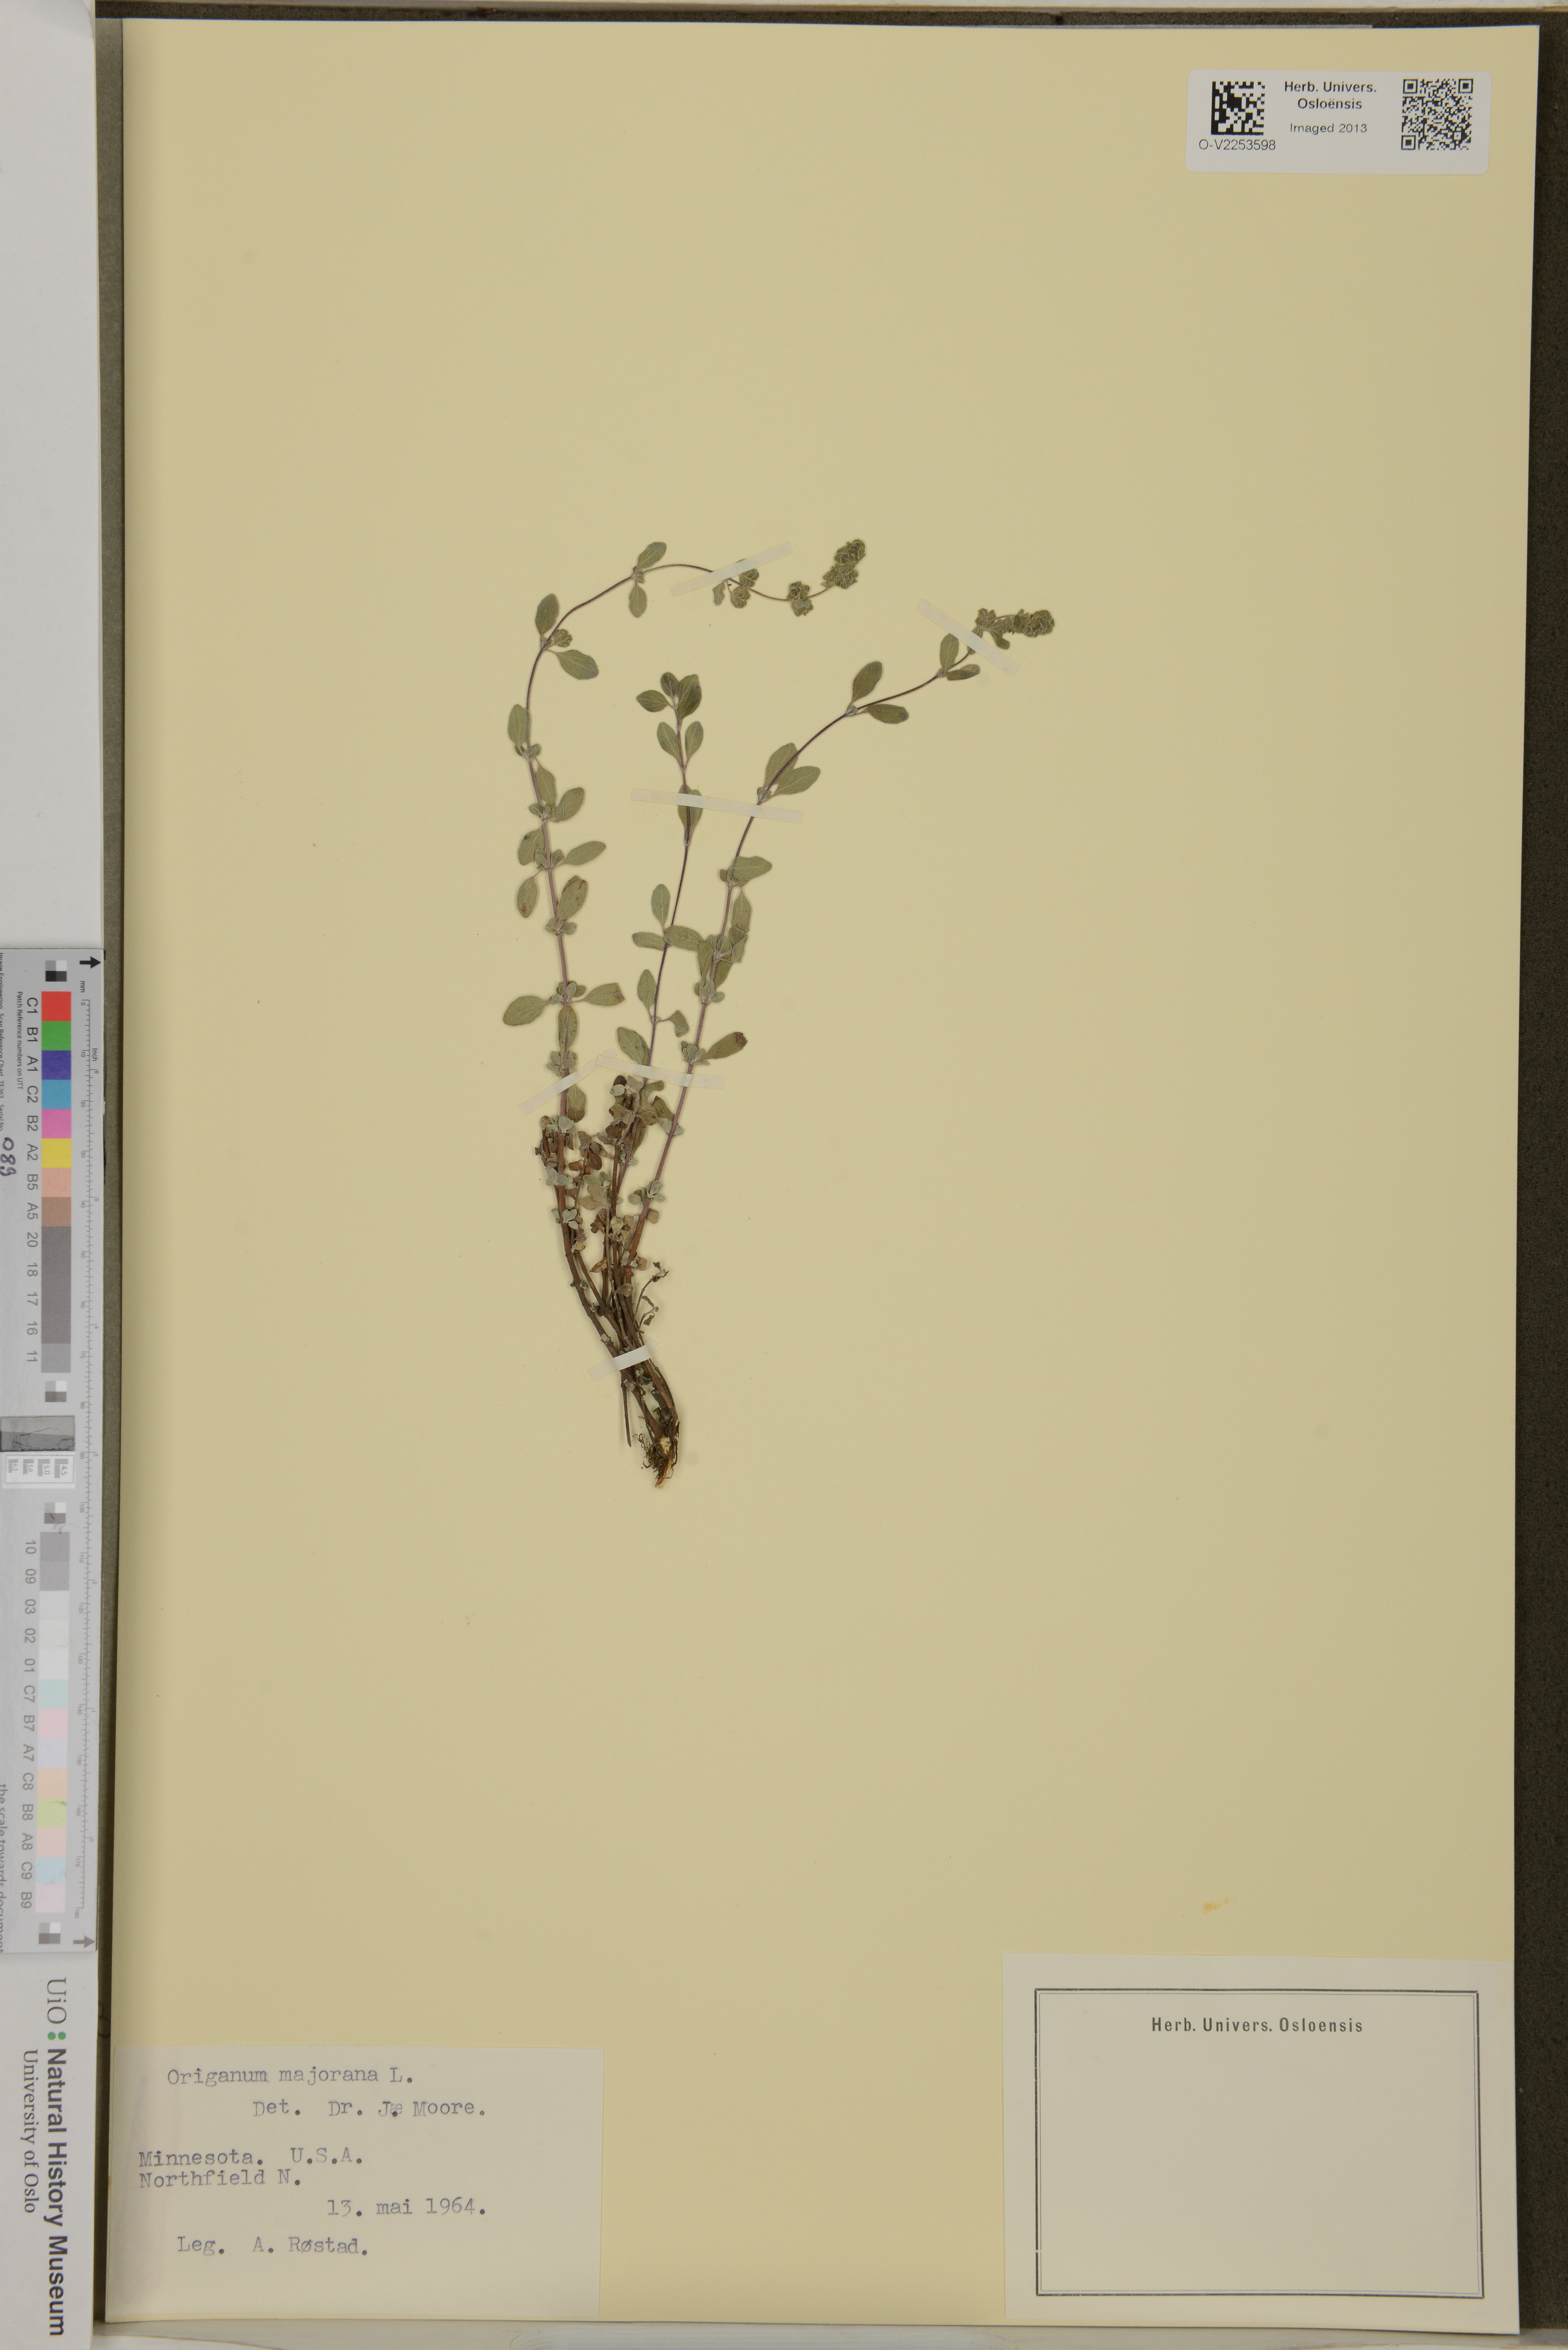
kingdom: Plantae
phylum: Tracheophyta
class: Magnoliopsida
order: Lamiales
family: Lamiaceae
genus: Origanum
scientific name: Origanum majorana
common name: Sweet marjoram
